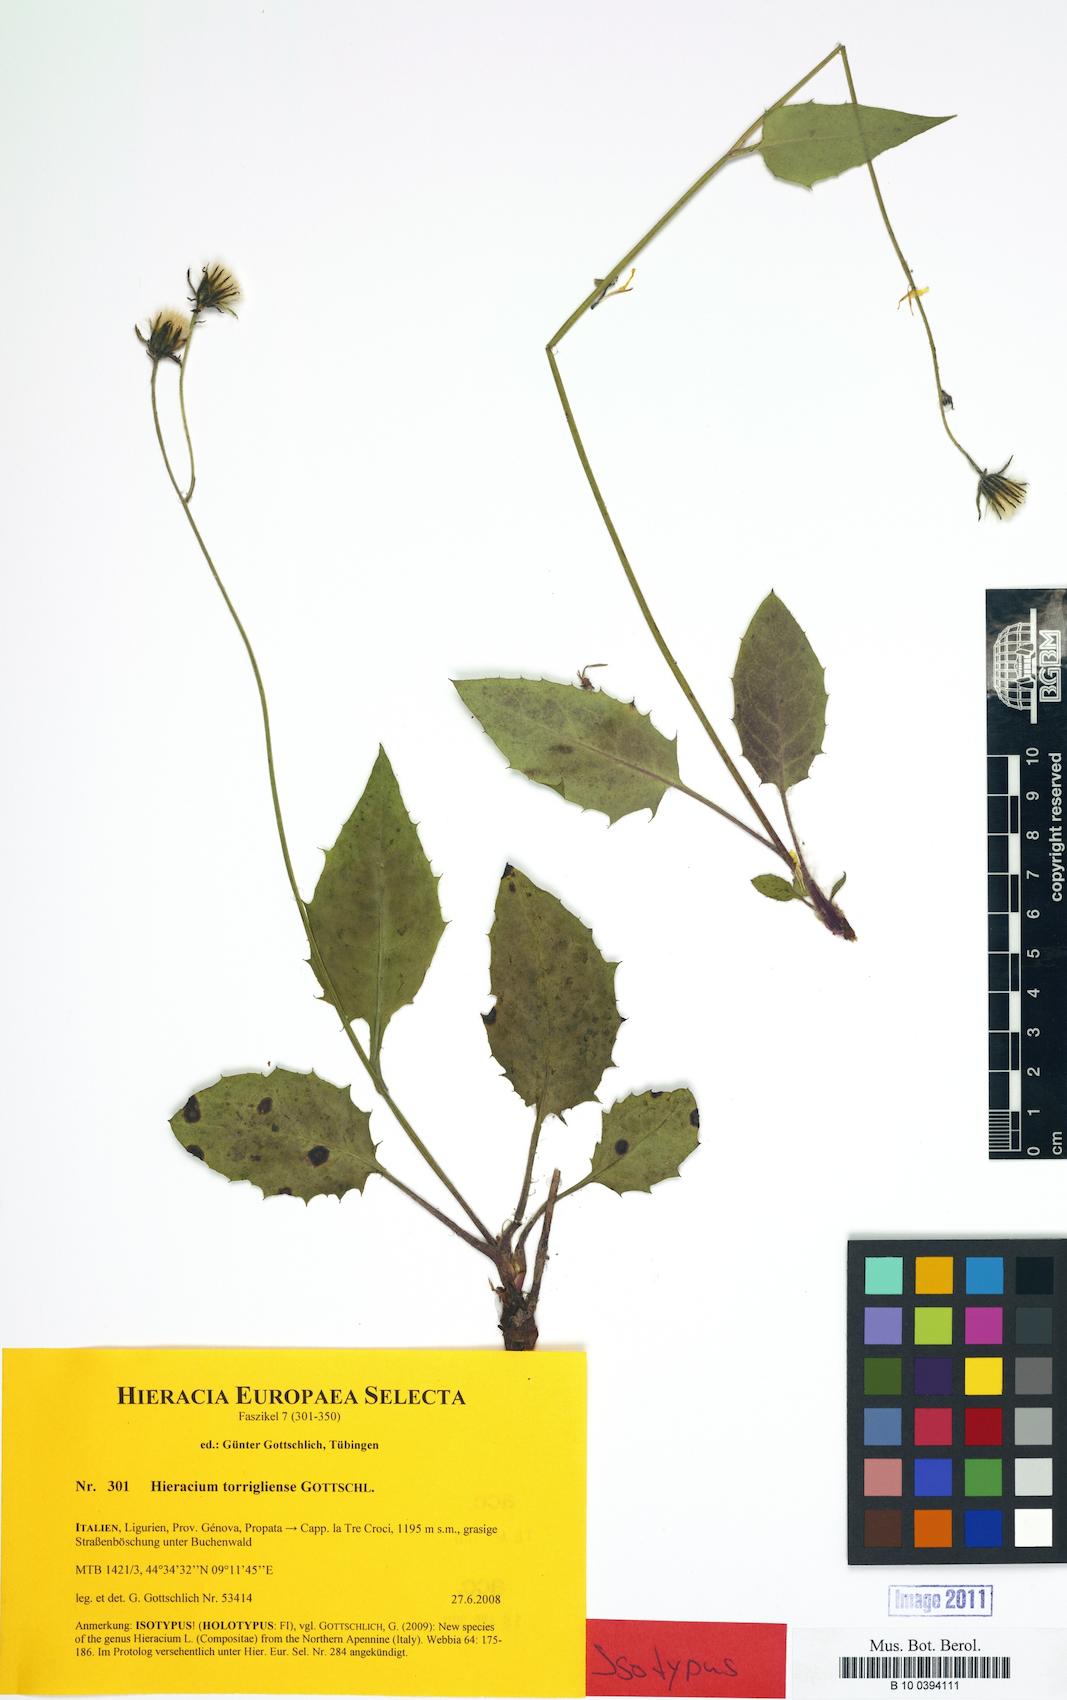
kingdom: Plantae
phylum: Tracheophyta
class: Magnoliopsida
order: Asterales
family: Asteraceae
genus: Hieracium
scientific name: Hieracium torrigliense
